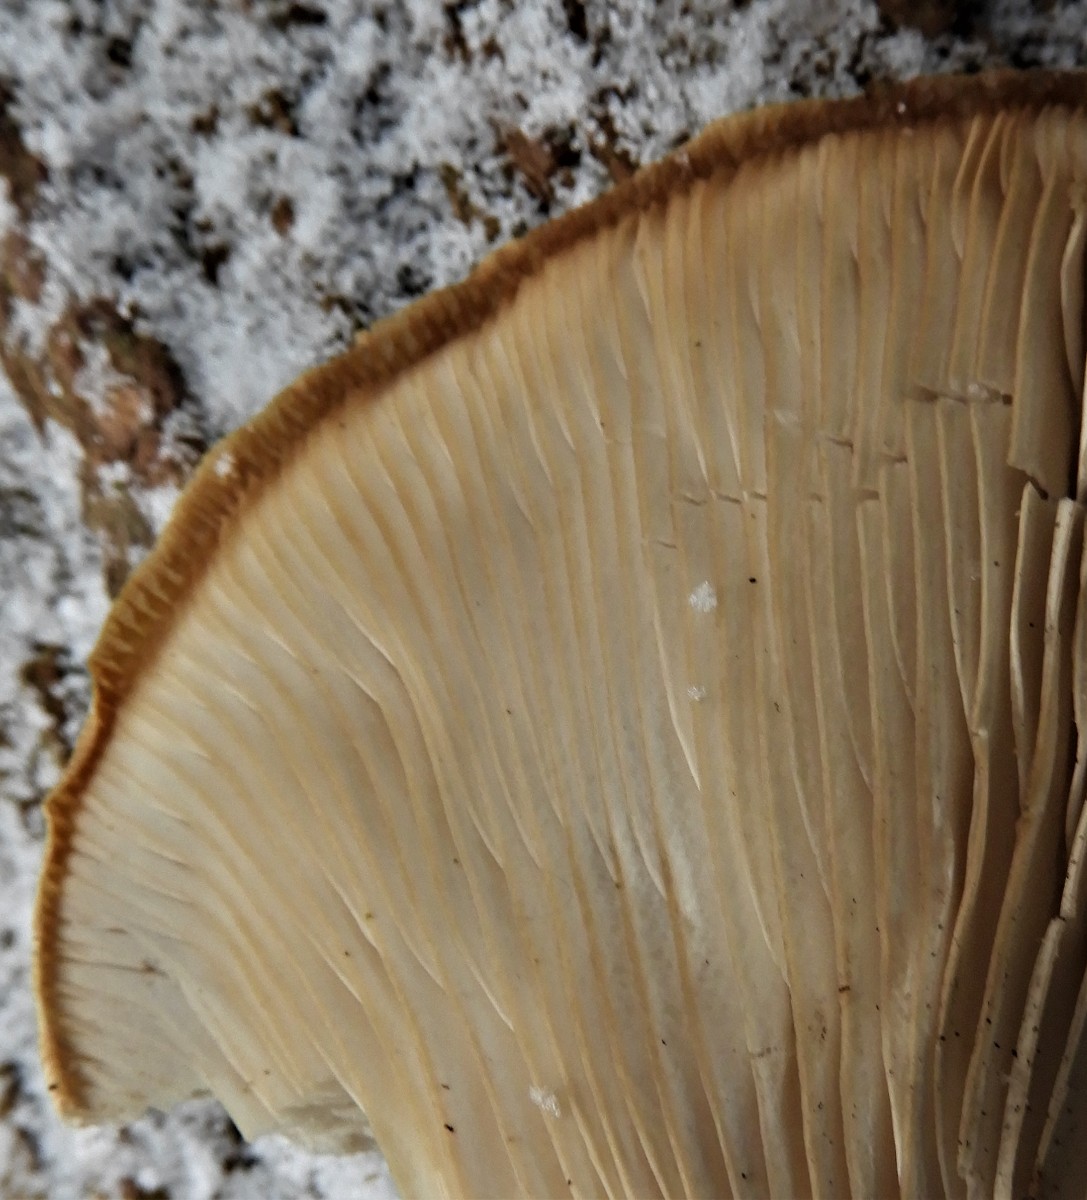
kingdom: Fungi
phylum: Basidiomycota
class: Agaricomycetes
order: Agaricales
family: Pleurotaceae
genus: Pleurotus
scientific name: Pleurotus ostreatus
